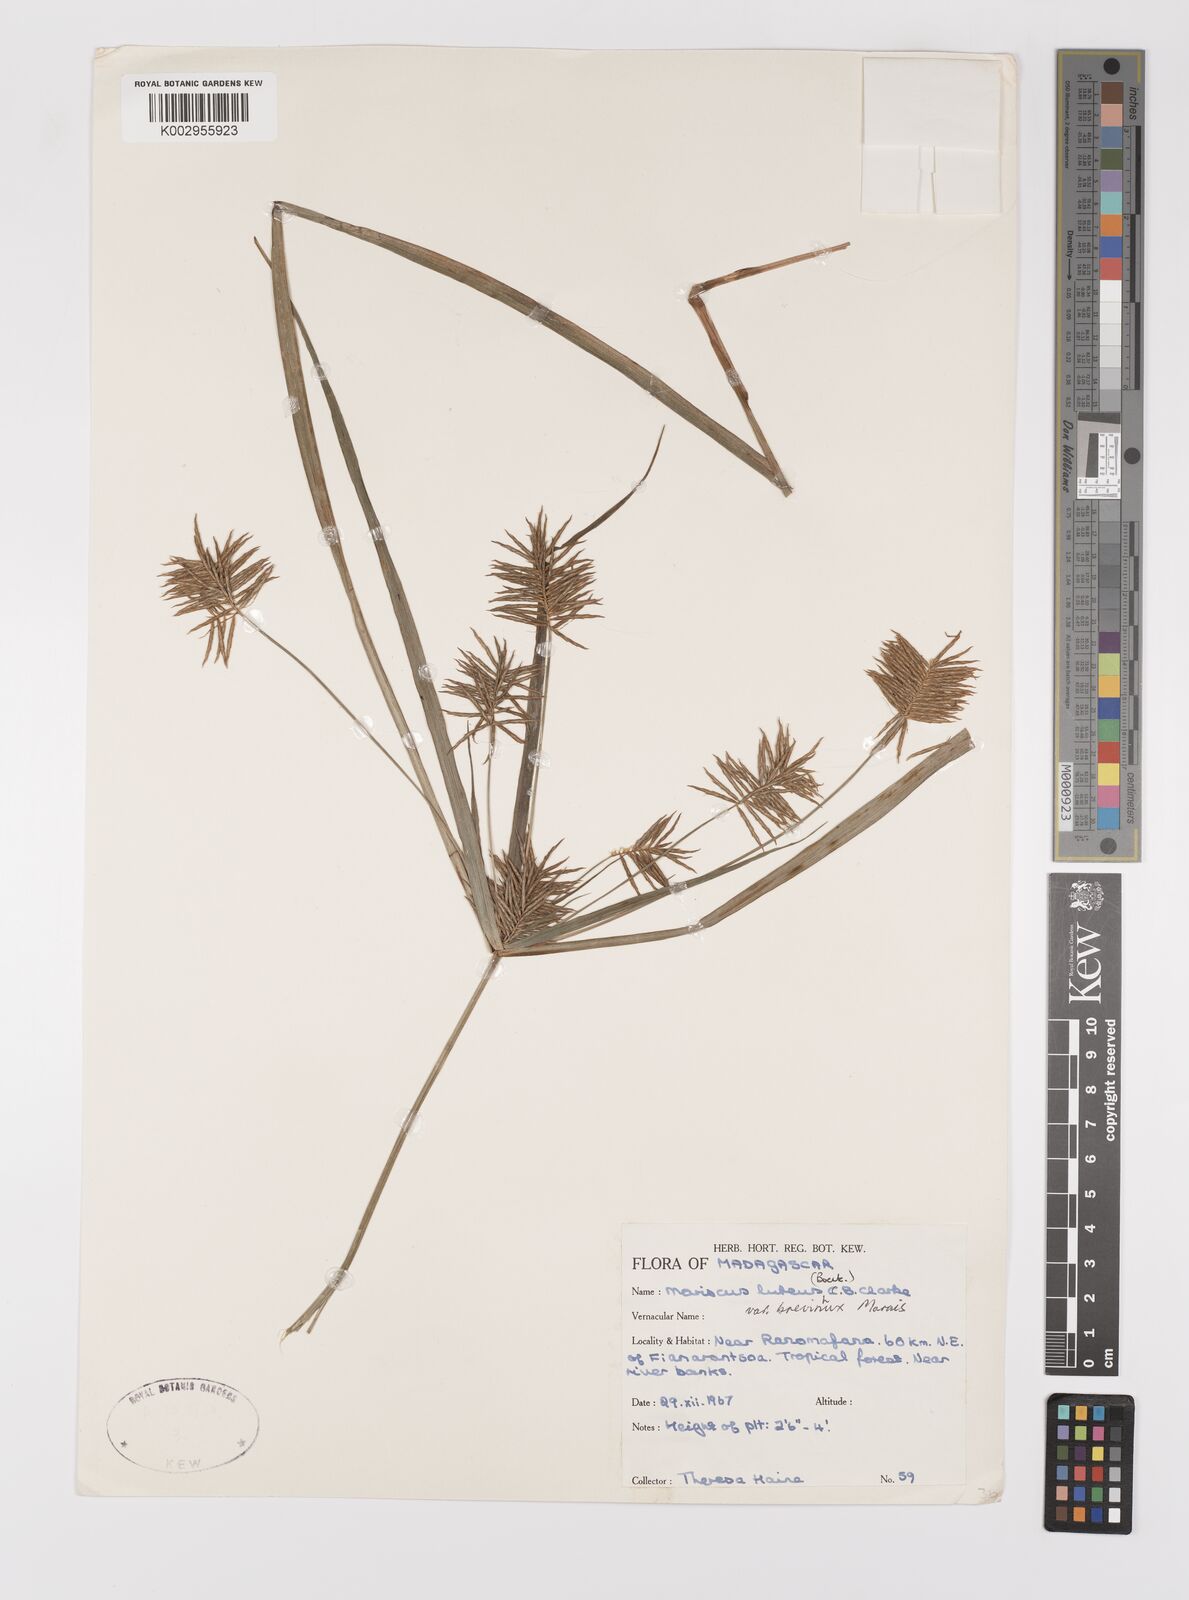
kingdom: Plantae
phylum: Tracheophyta
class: Liliopsida
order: Poales
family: Cyperaceae
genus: Cyperus
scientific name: Cyperus luteus
